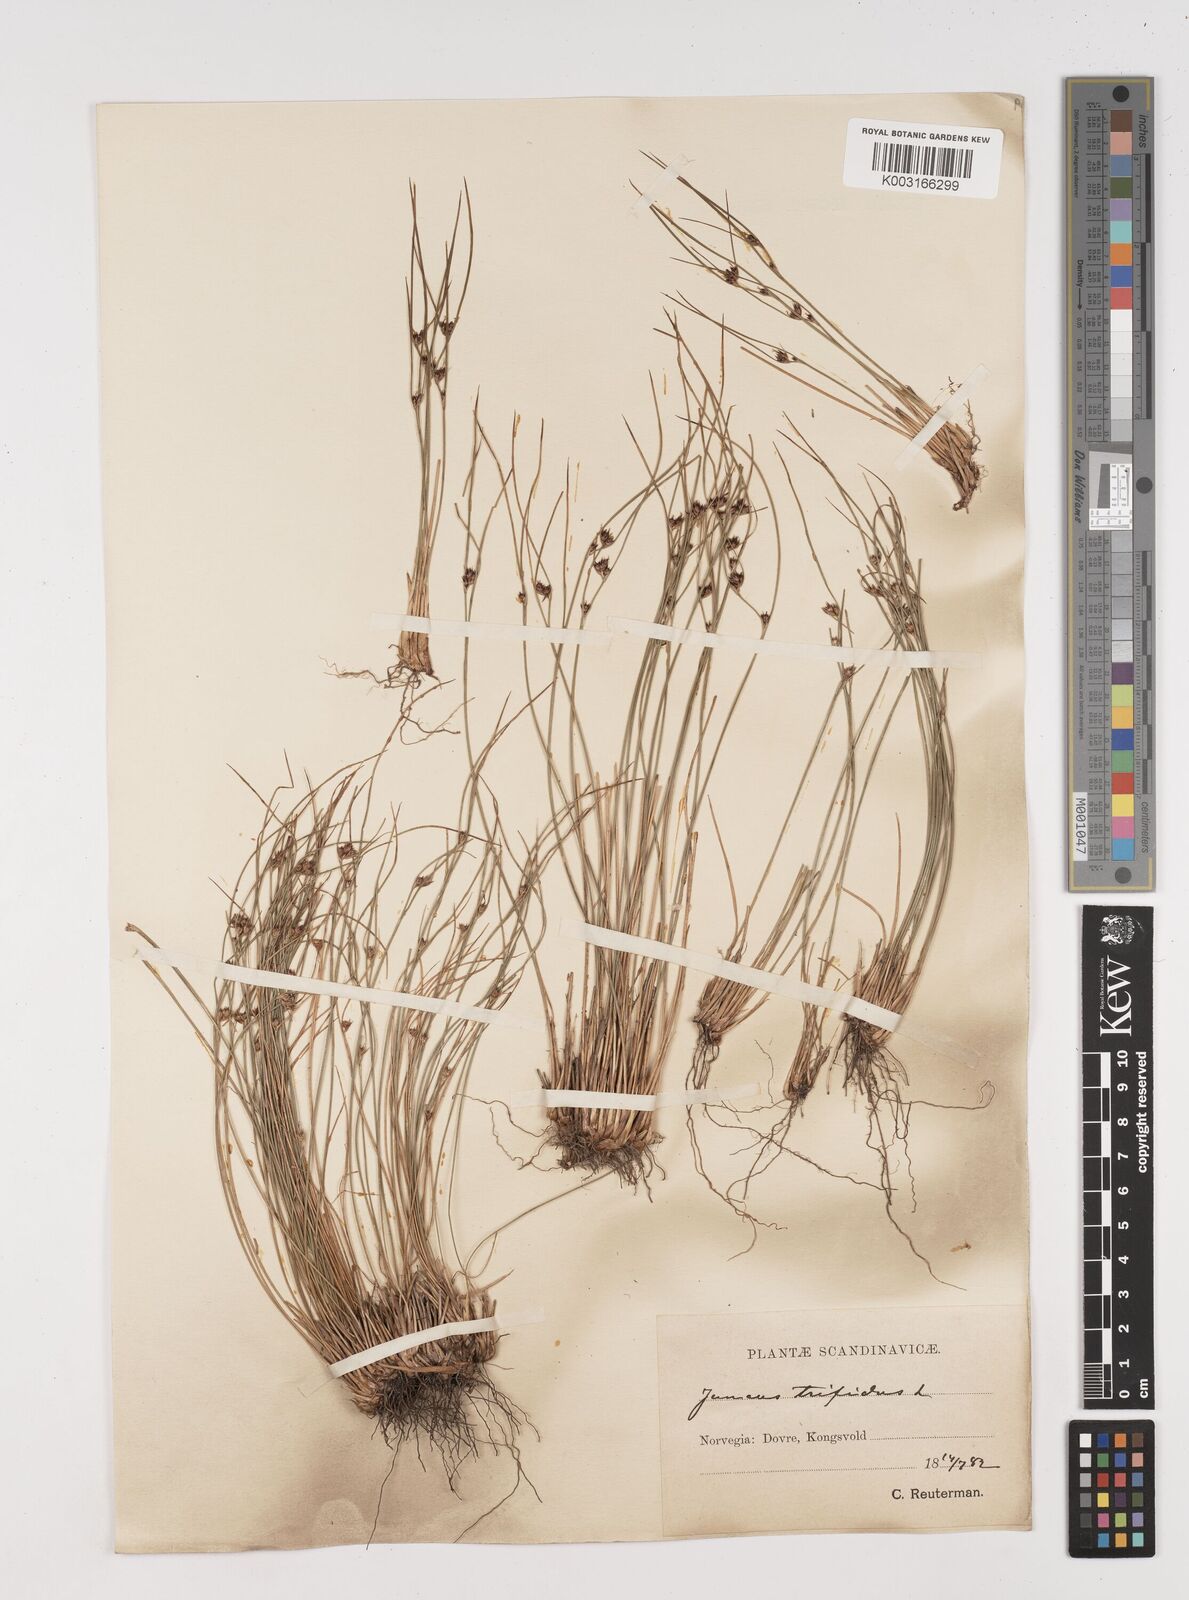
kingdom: Plantae
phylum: Tracheophyta
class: Liliopsida
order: Poales
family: Juncaceae
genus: Oreojuncus
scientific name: Oreojuncus trifidus
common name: Highland rush
